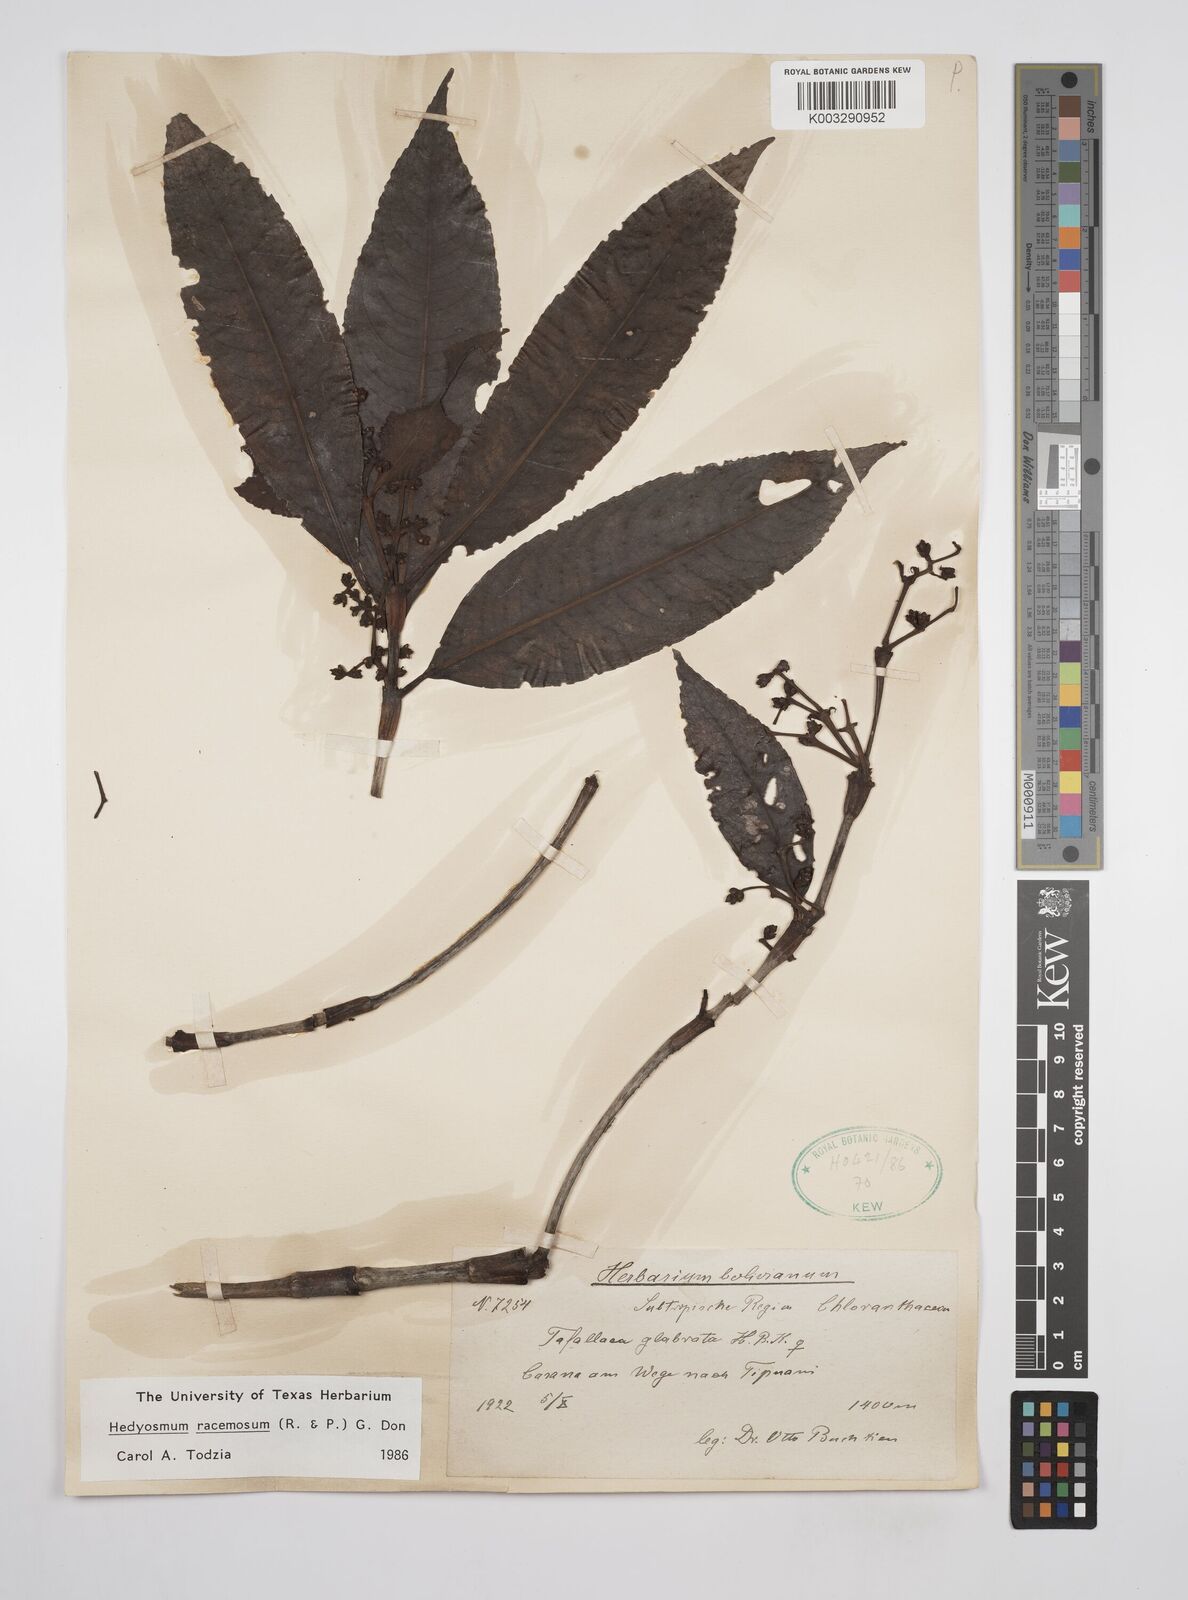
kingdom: Plantae
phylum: Tracheophyta
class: Magnoliopsida
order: Chloranthales
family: Chloranthaceae
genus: Hedyosmum
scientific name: Hedyosmum racemosum
